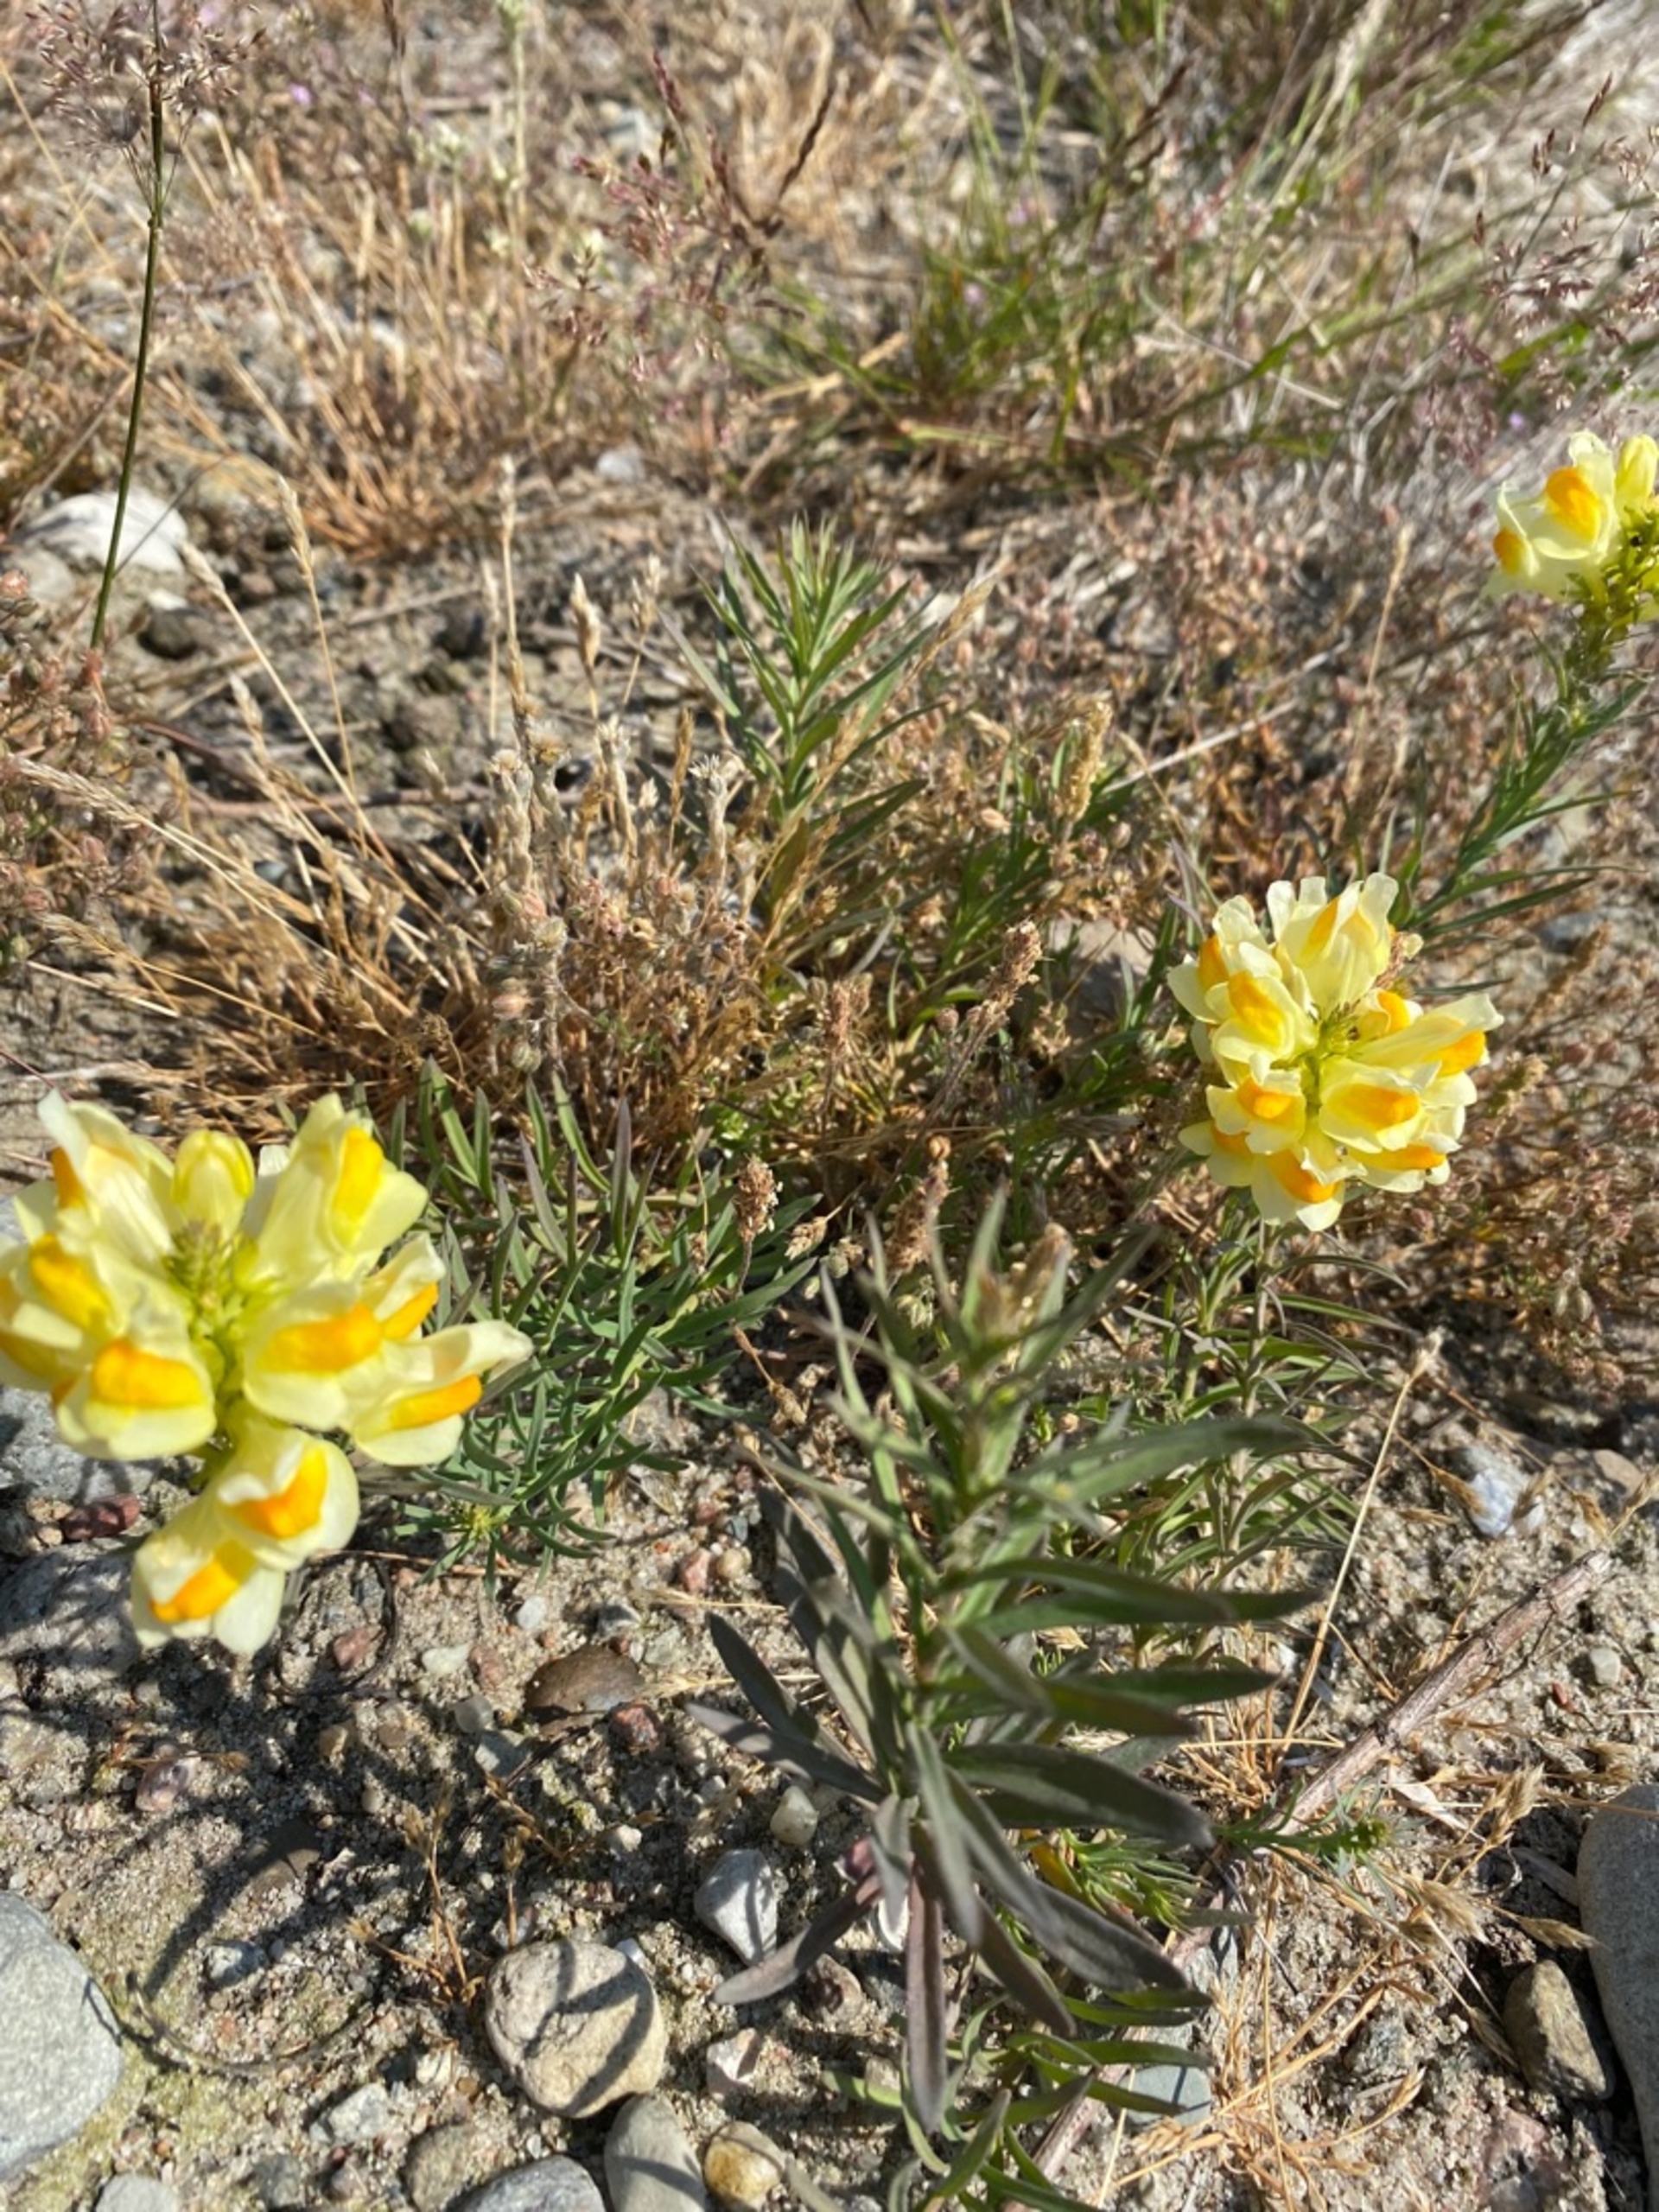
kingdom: Plantae
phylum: Tracheophyta
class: Magnoliopsida
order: Lamiales
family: Plantaginaceae
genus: Linaria
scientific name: Linaria vulgaris
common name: Almindelig torskemund
